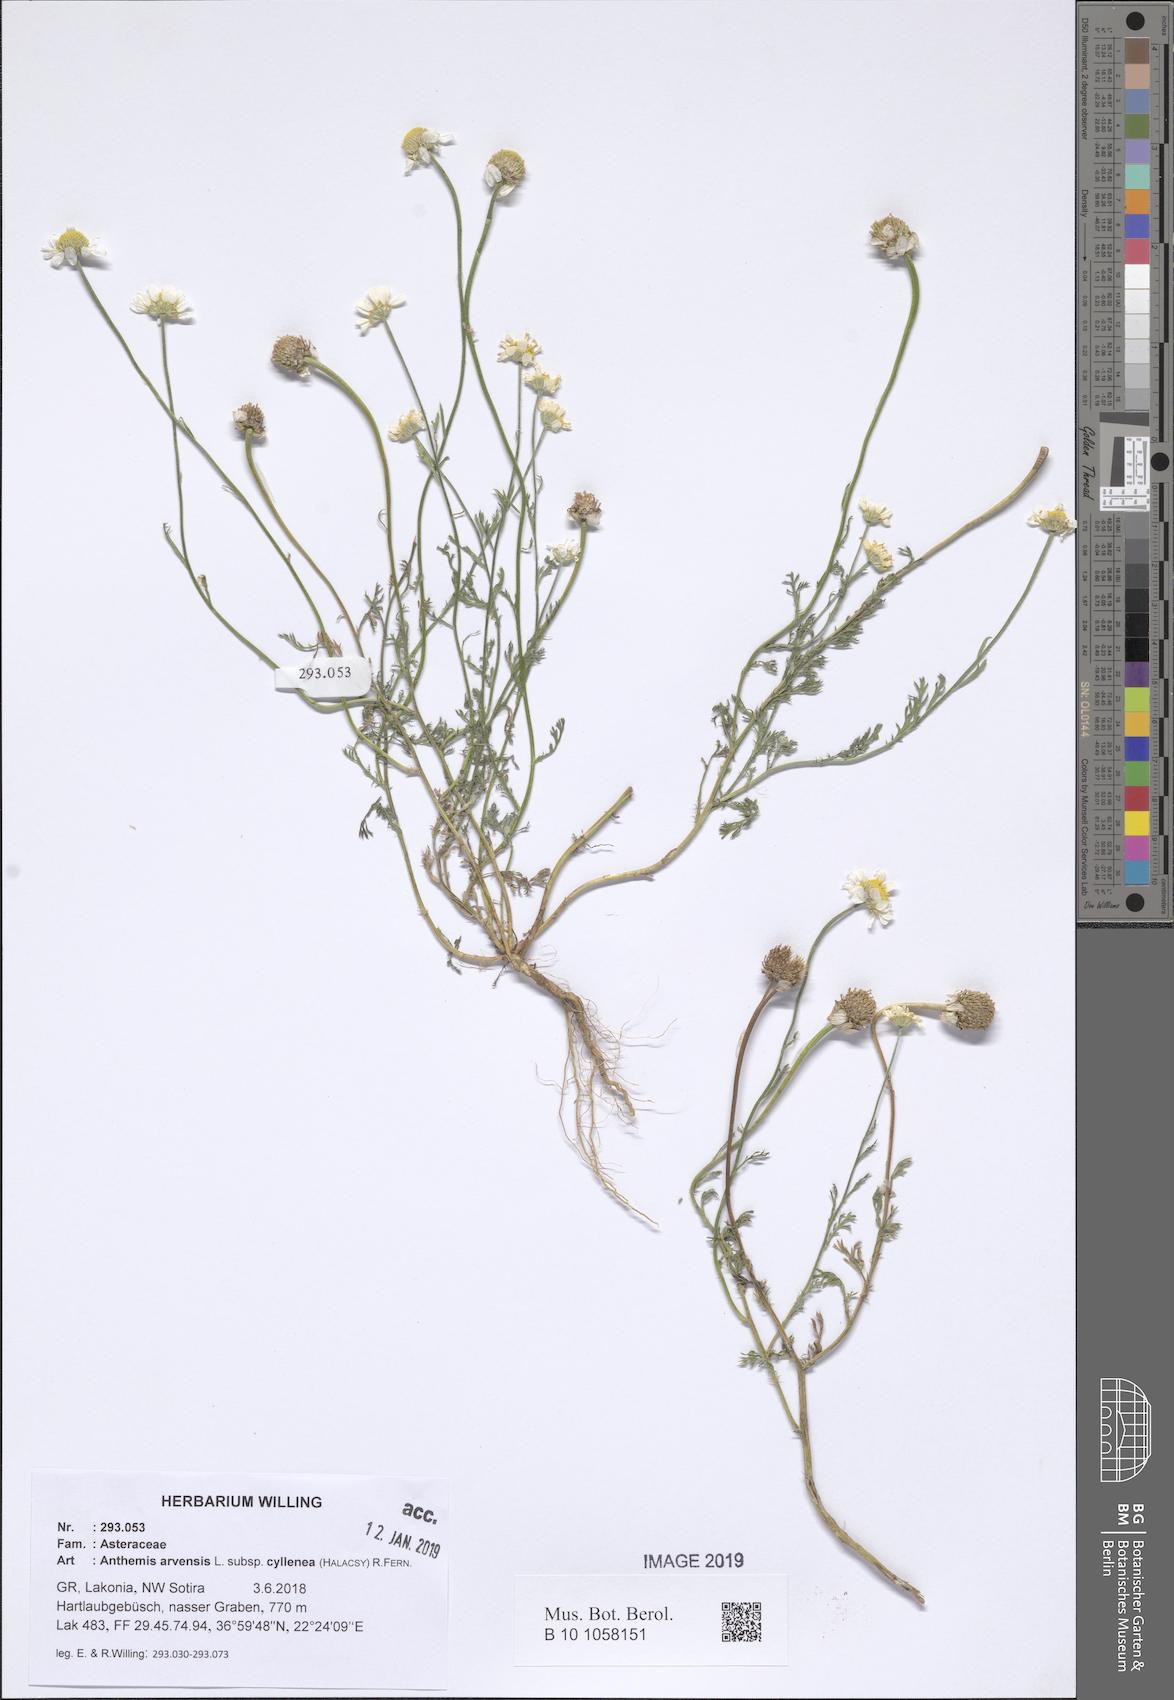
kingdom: Plantae
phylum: Tracheophyta
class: Magnoliopsida
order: Asterales
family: Asteraceae
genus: Anthemis
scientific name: Anthemis arvensis
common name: Corn chamomile
